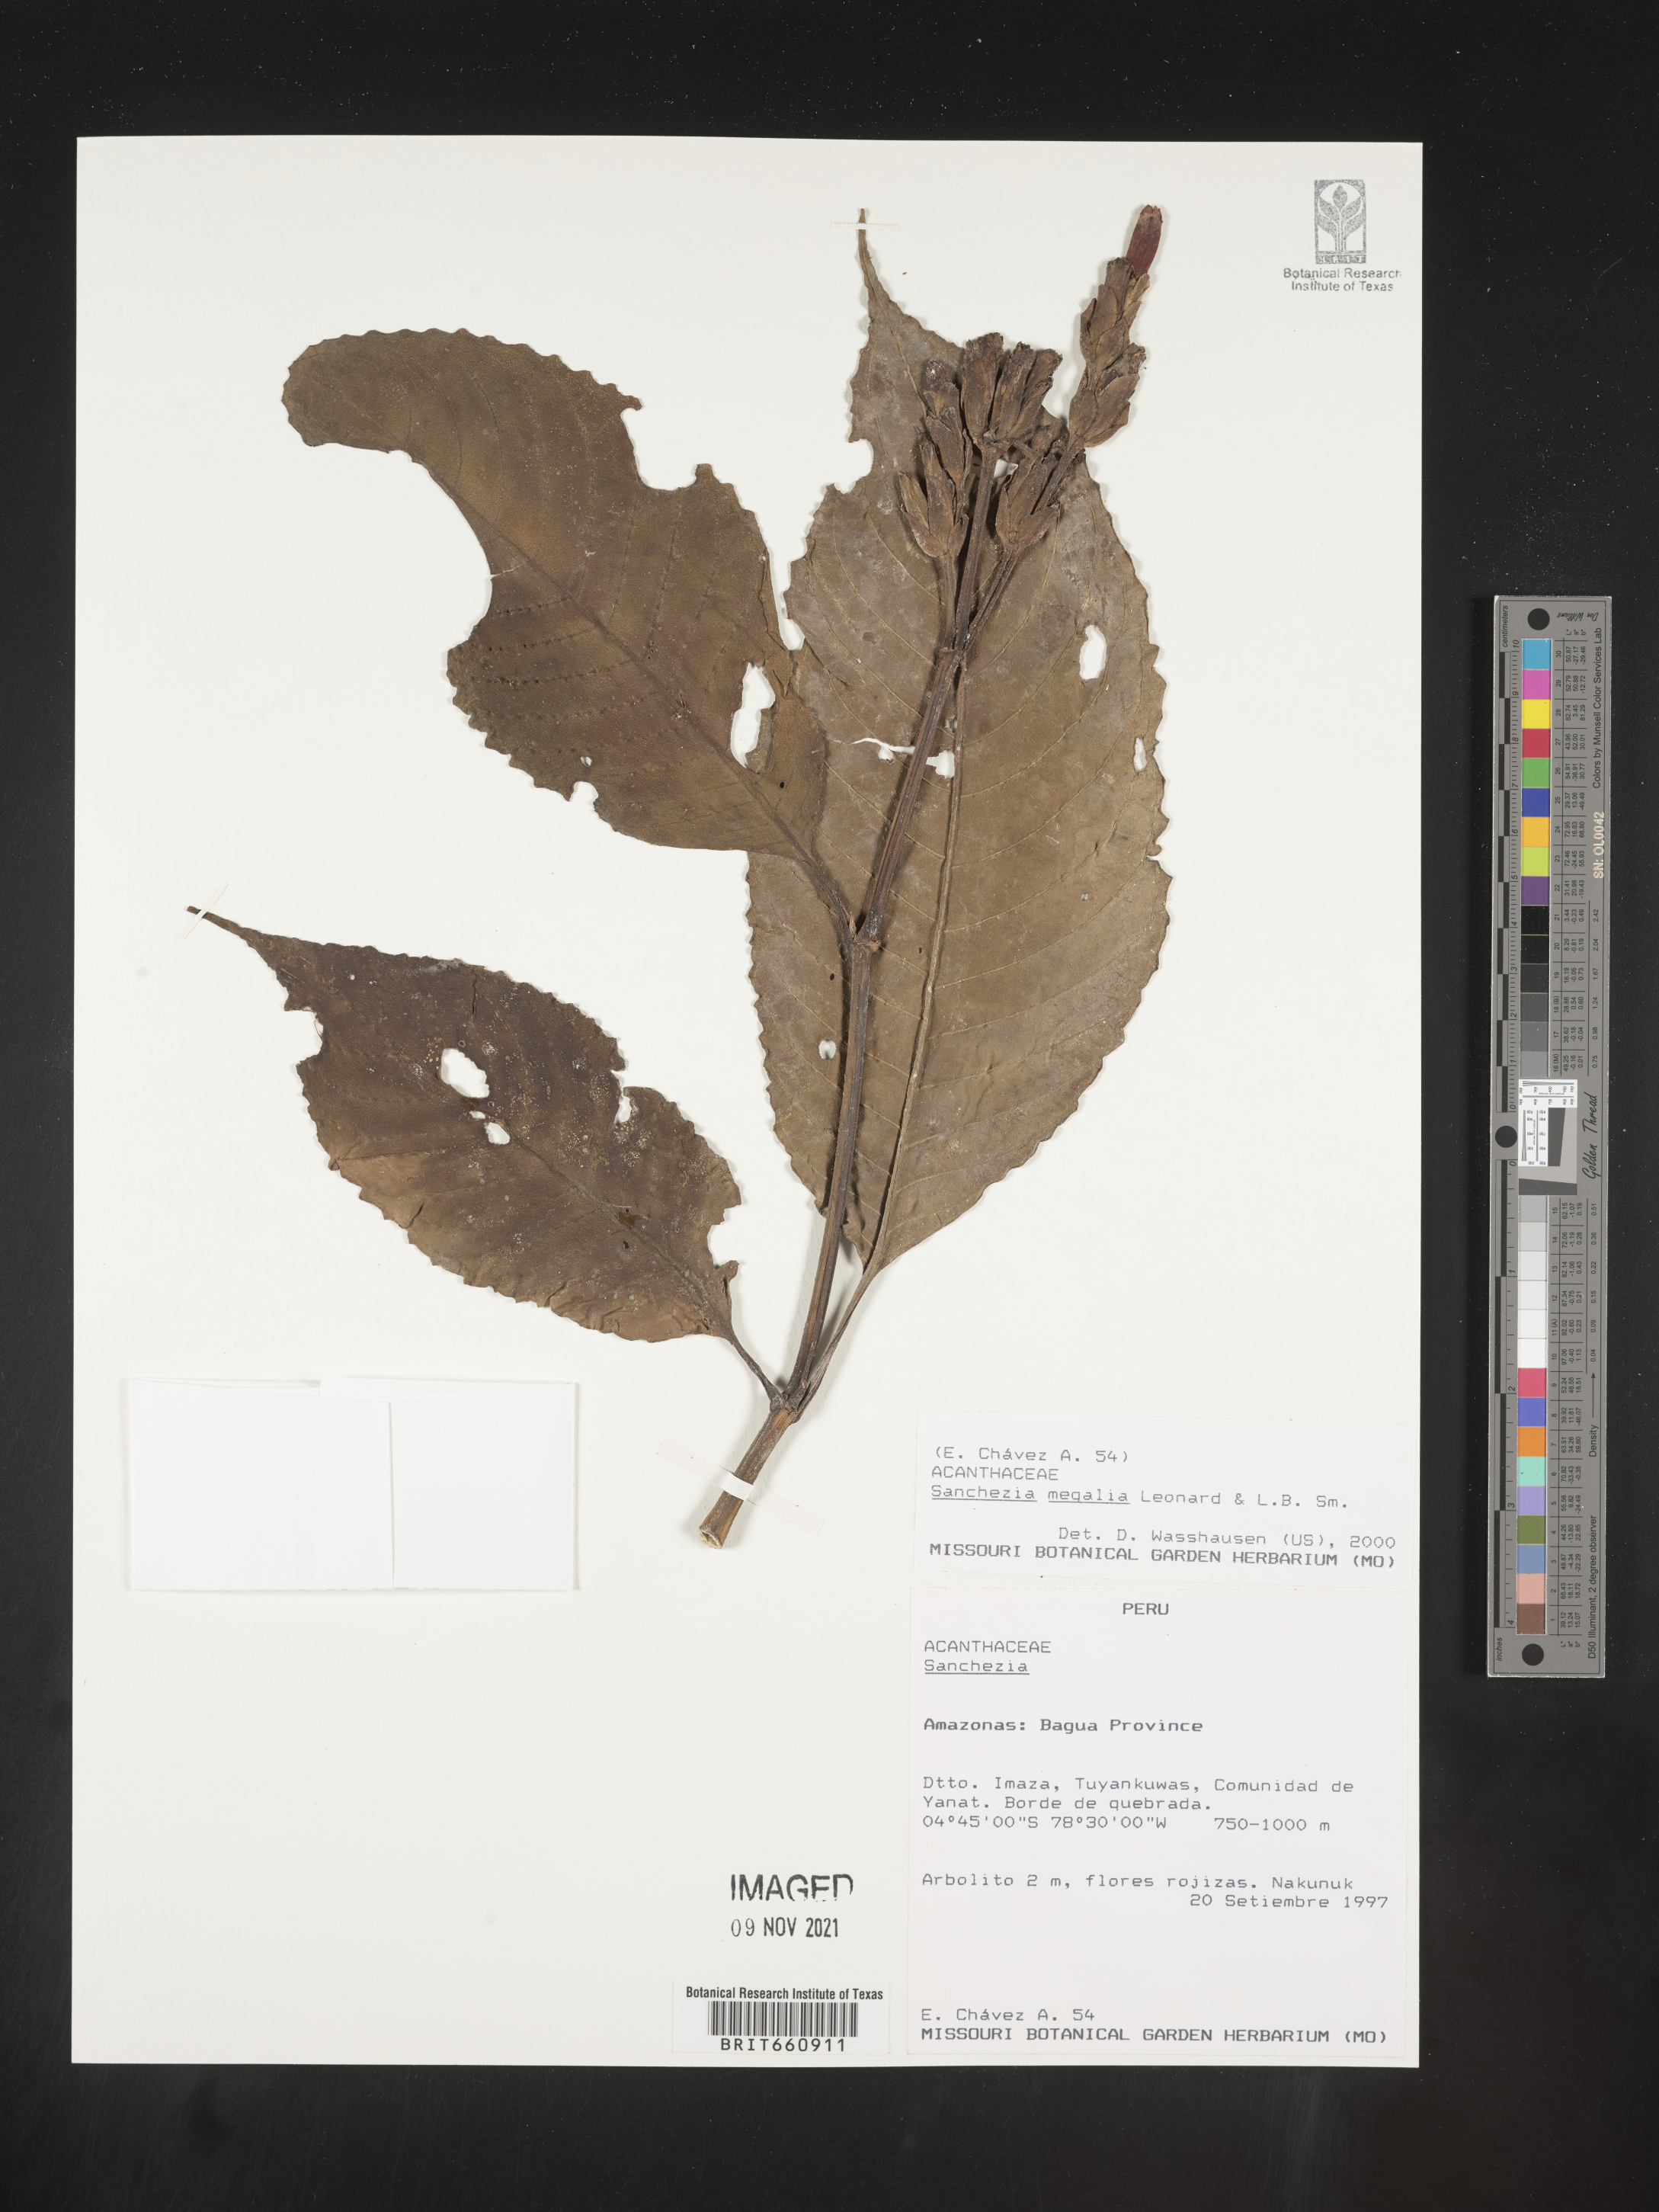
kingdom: Plantae
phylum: Tracheophyta
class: Magnoliopsida
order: Lamiales
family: Acanthaceae
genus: Sanchezia
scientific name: Sanchezia
